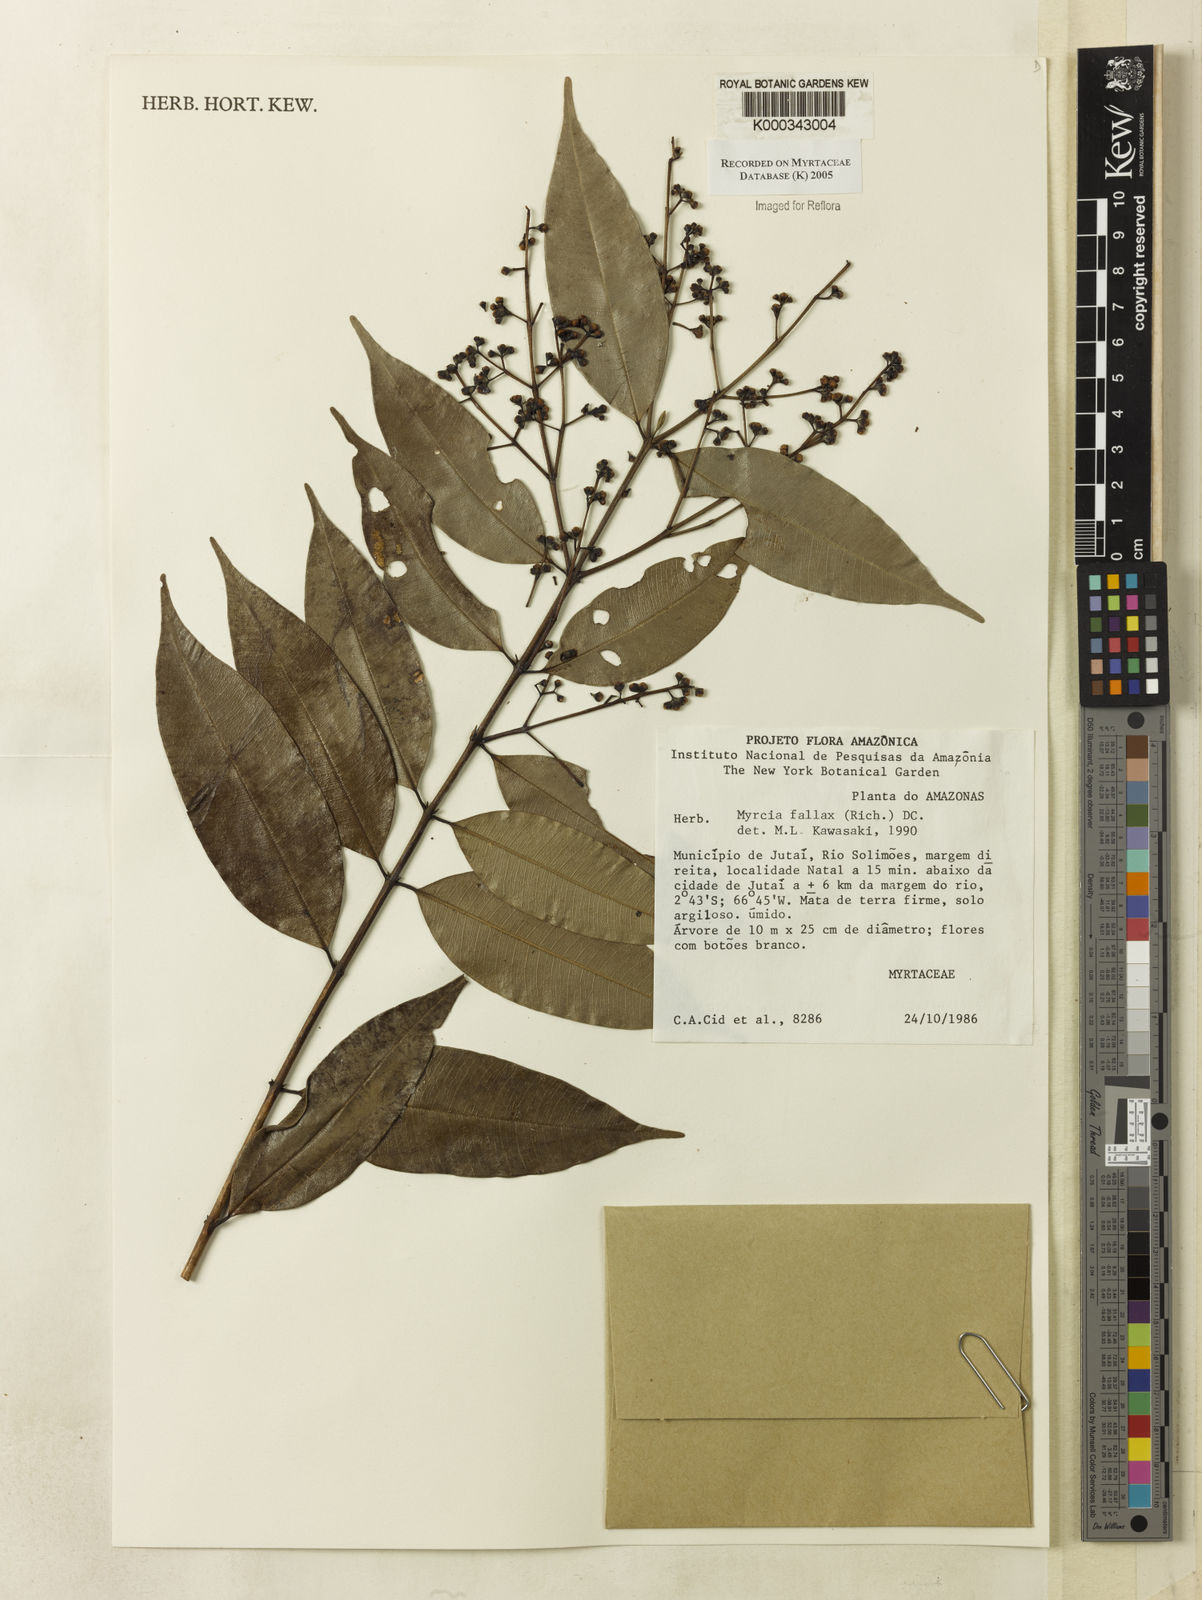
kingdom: Plantae
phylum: Tracheophyta
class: Magnoliopsida
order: Myrtales
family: Myrtaceae
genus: Myrcia
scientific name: Myrcia splendens
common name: Surinam cherry
